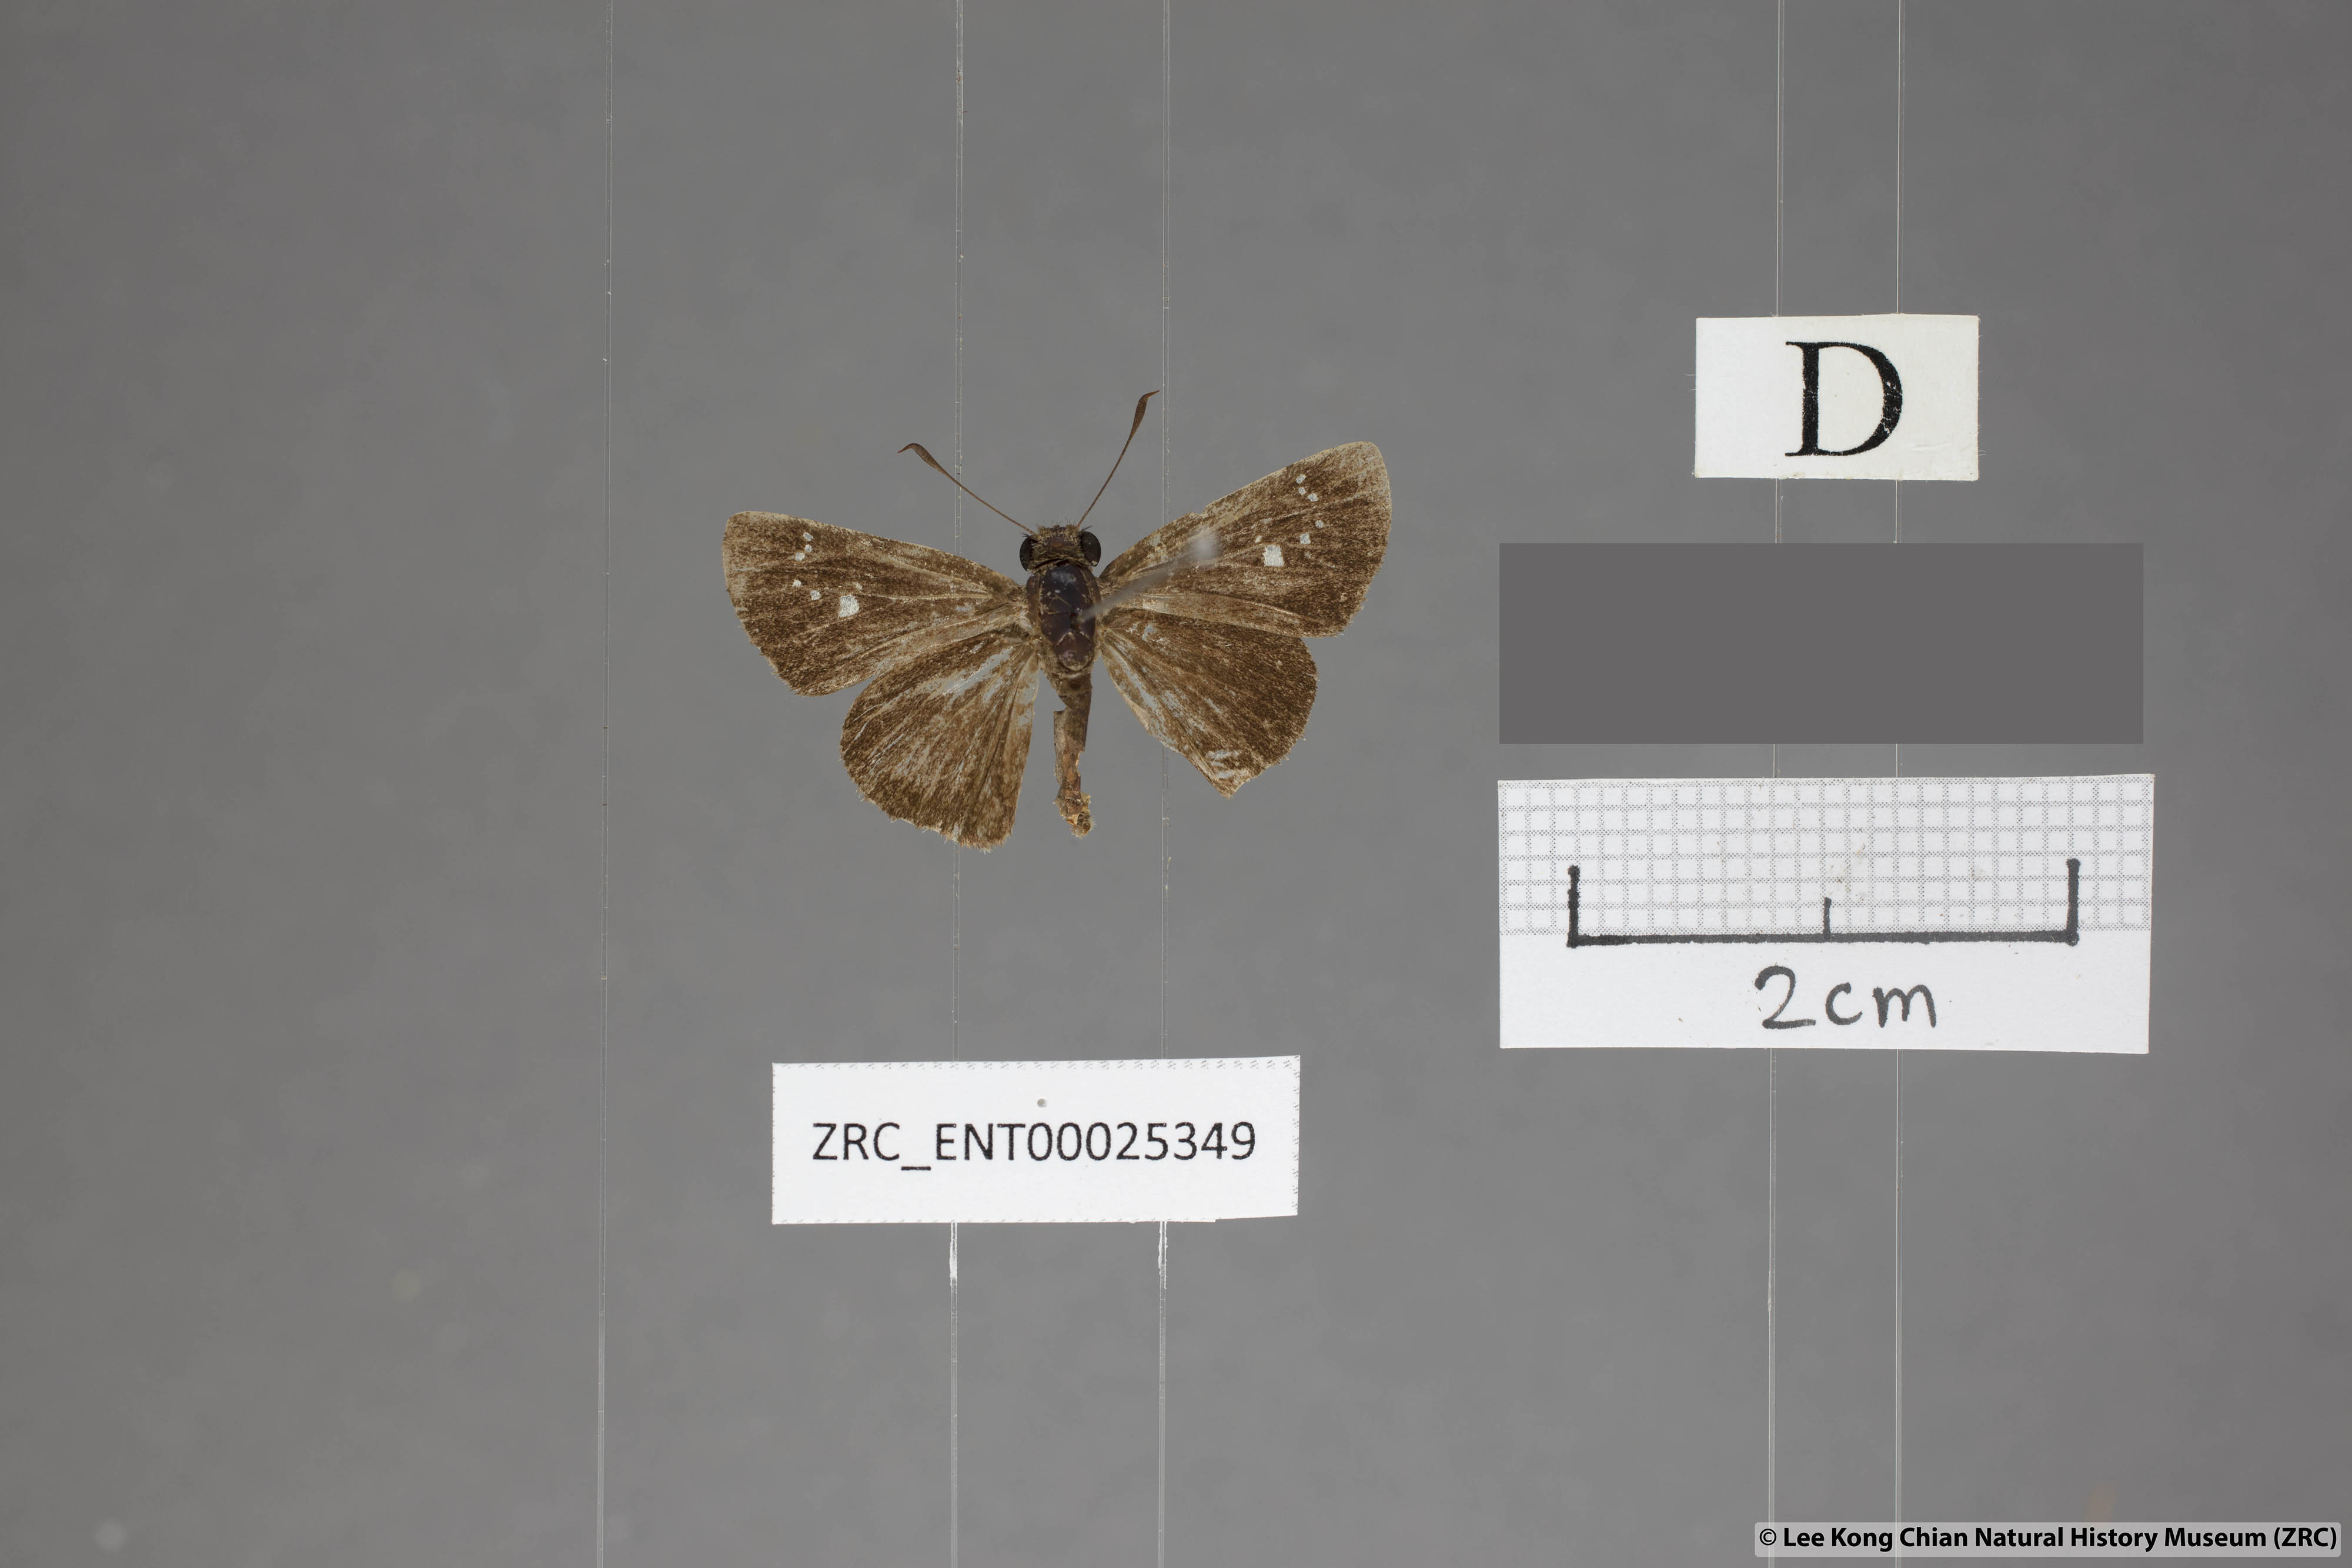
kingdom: Animalia
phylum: Arthropoda
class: Insecta
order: Lepidoptera
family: Hesperiidae
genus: Polytremis
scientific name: Polytremis minuta
